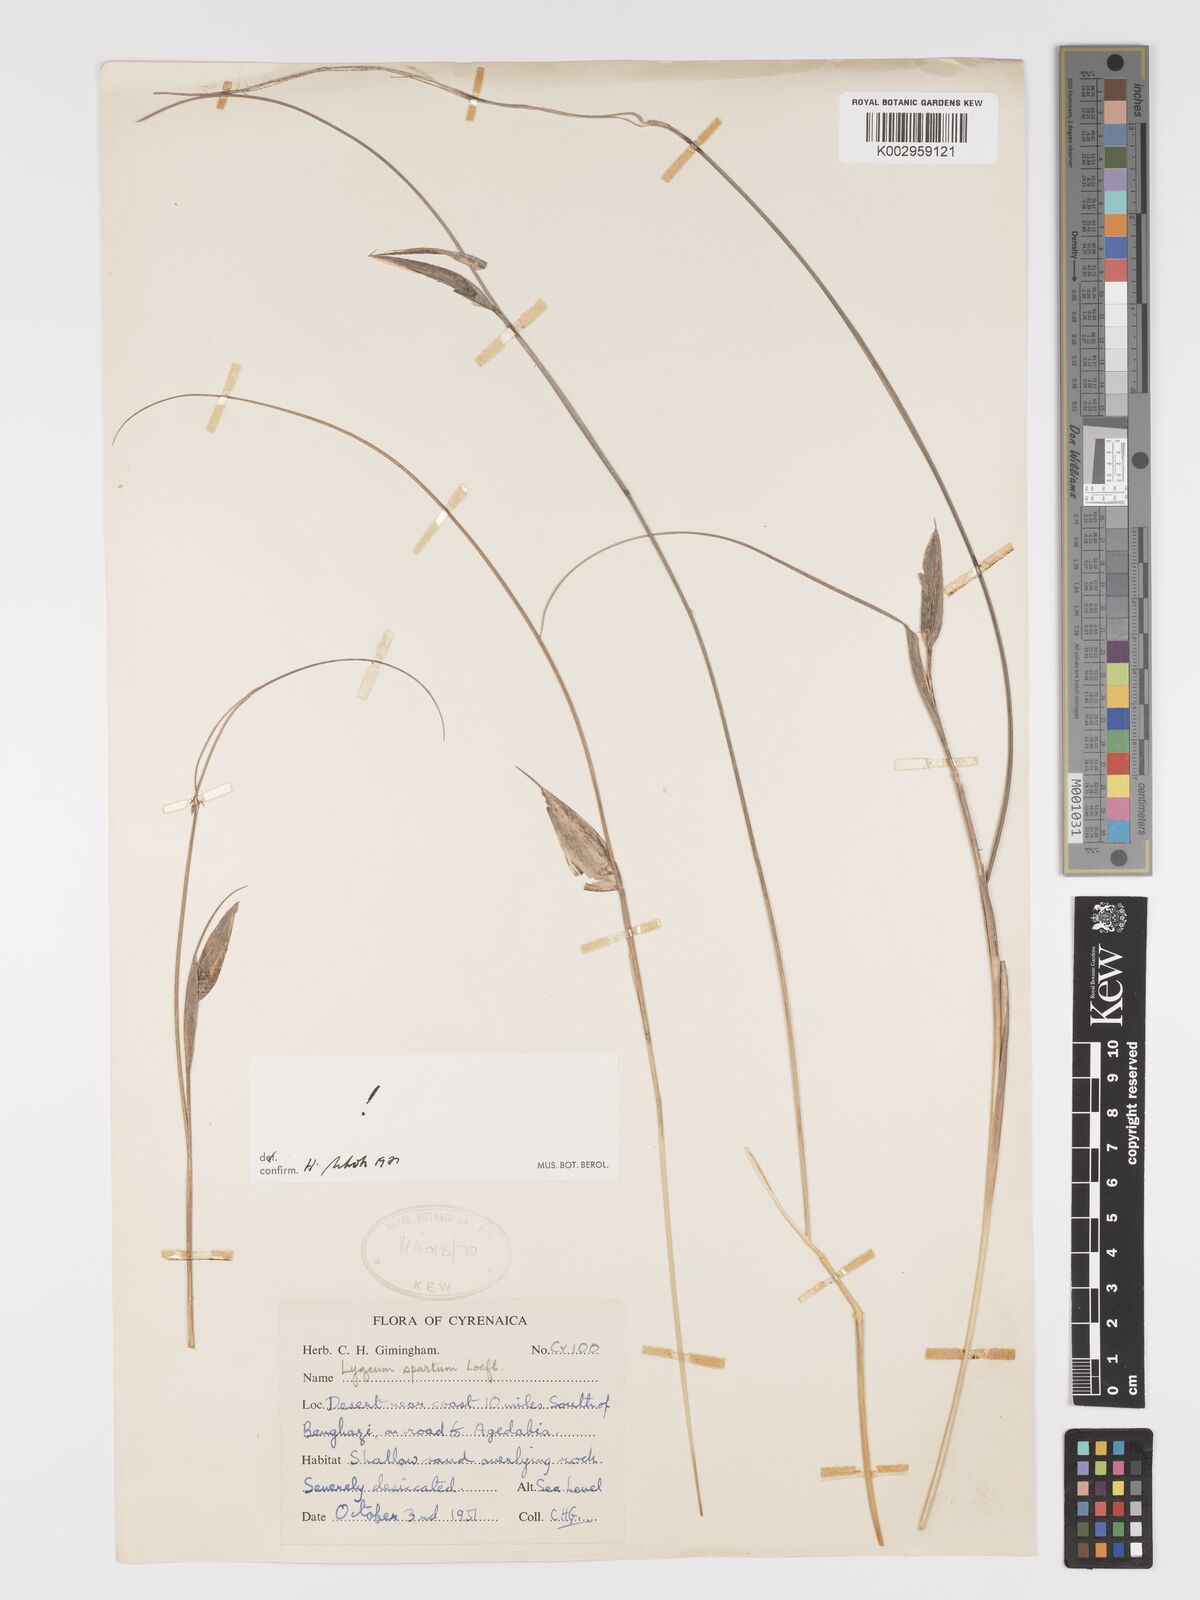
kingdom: Plantae
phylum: Tracheophyta
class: Liliopsida
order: Poales
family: Poaceae
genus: Lygeum
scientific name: Lygeum spartum
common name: Albardine
